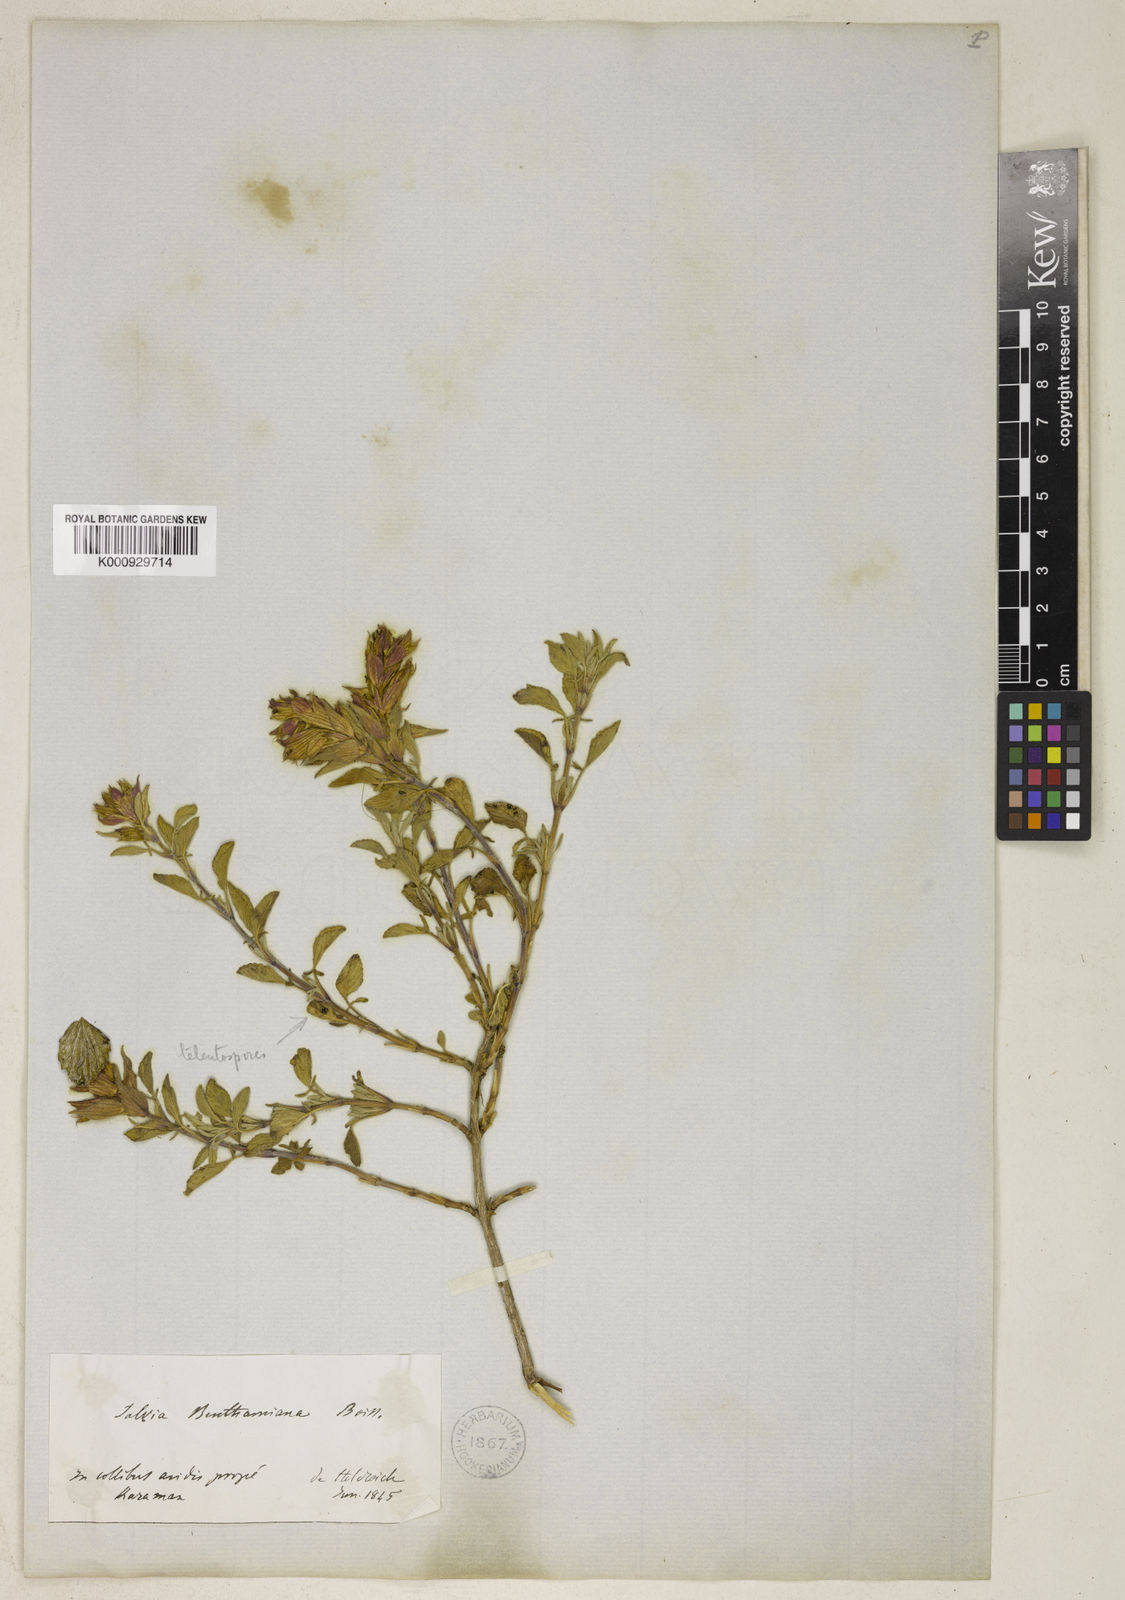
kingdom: Plantae
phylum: Tracheophyta
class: Magnoliopsida
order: Lamiales
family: Lamiaceae
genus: Salvia
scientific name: Salvia heldreichiana
